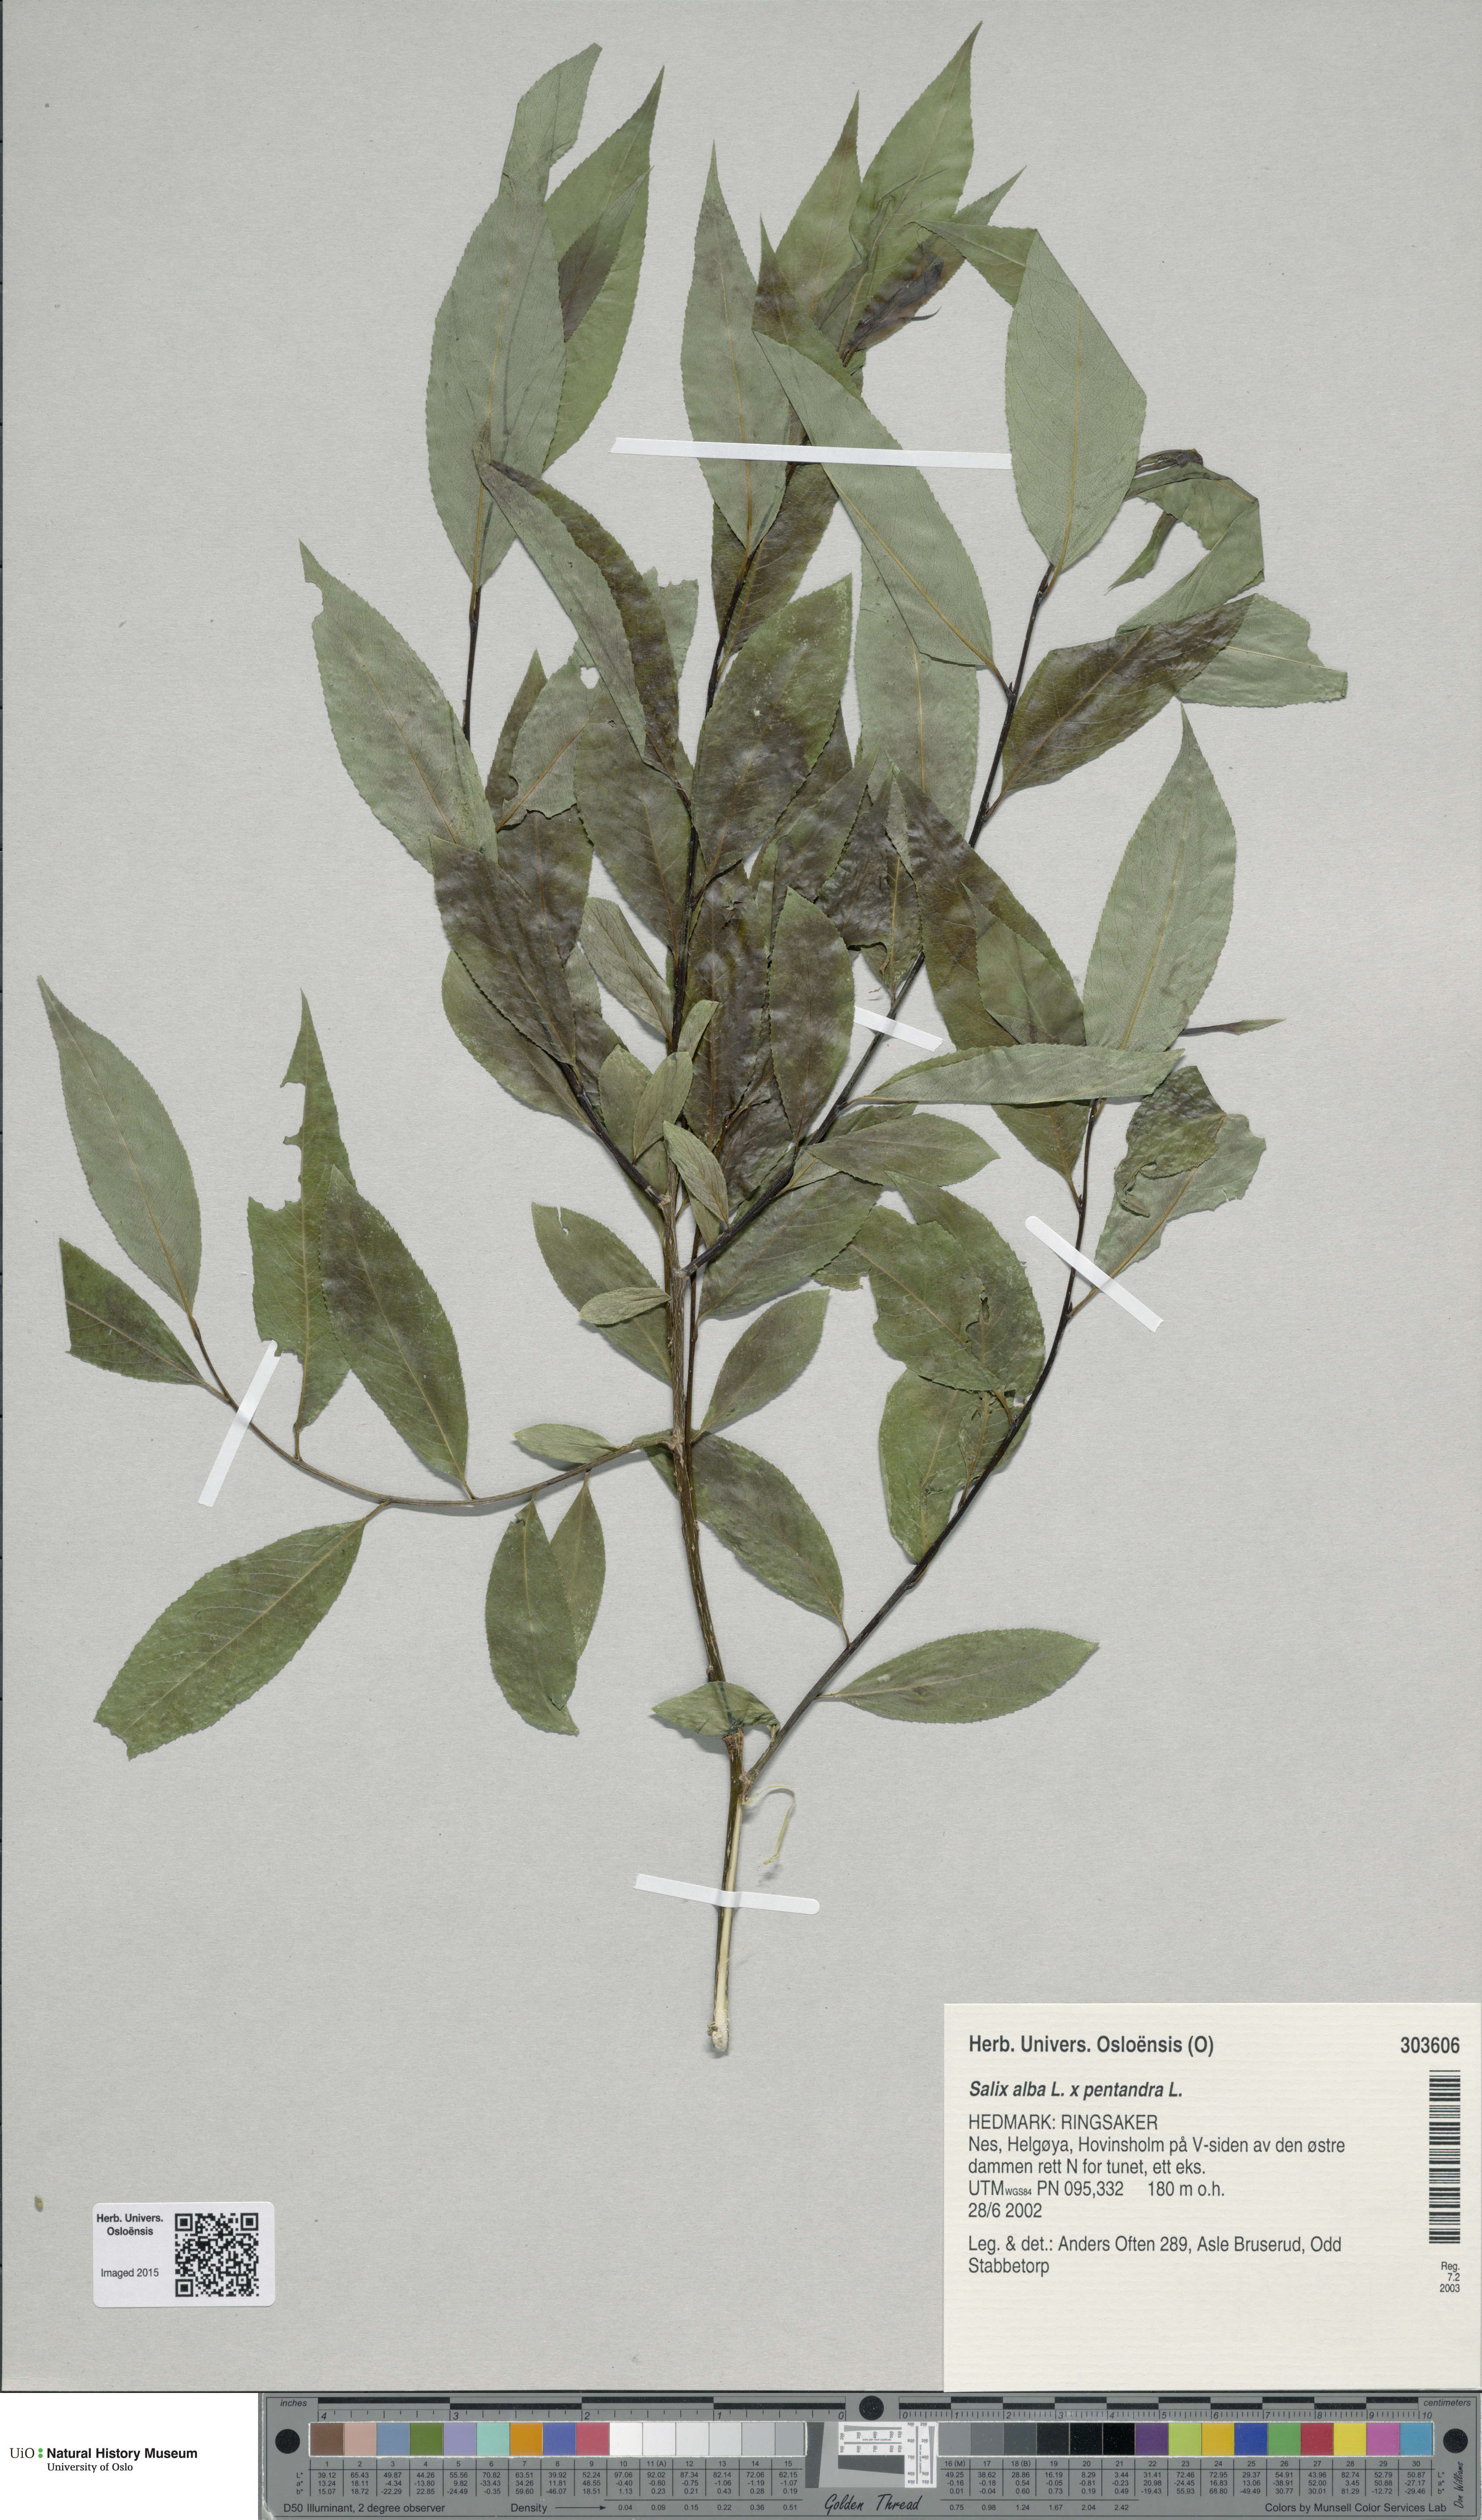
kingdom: Plantae
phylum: Tracheophyta
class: Magnoliopsida
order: Malpighiales
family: Salicaceae
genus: Salix
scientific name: Salix
